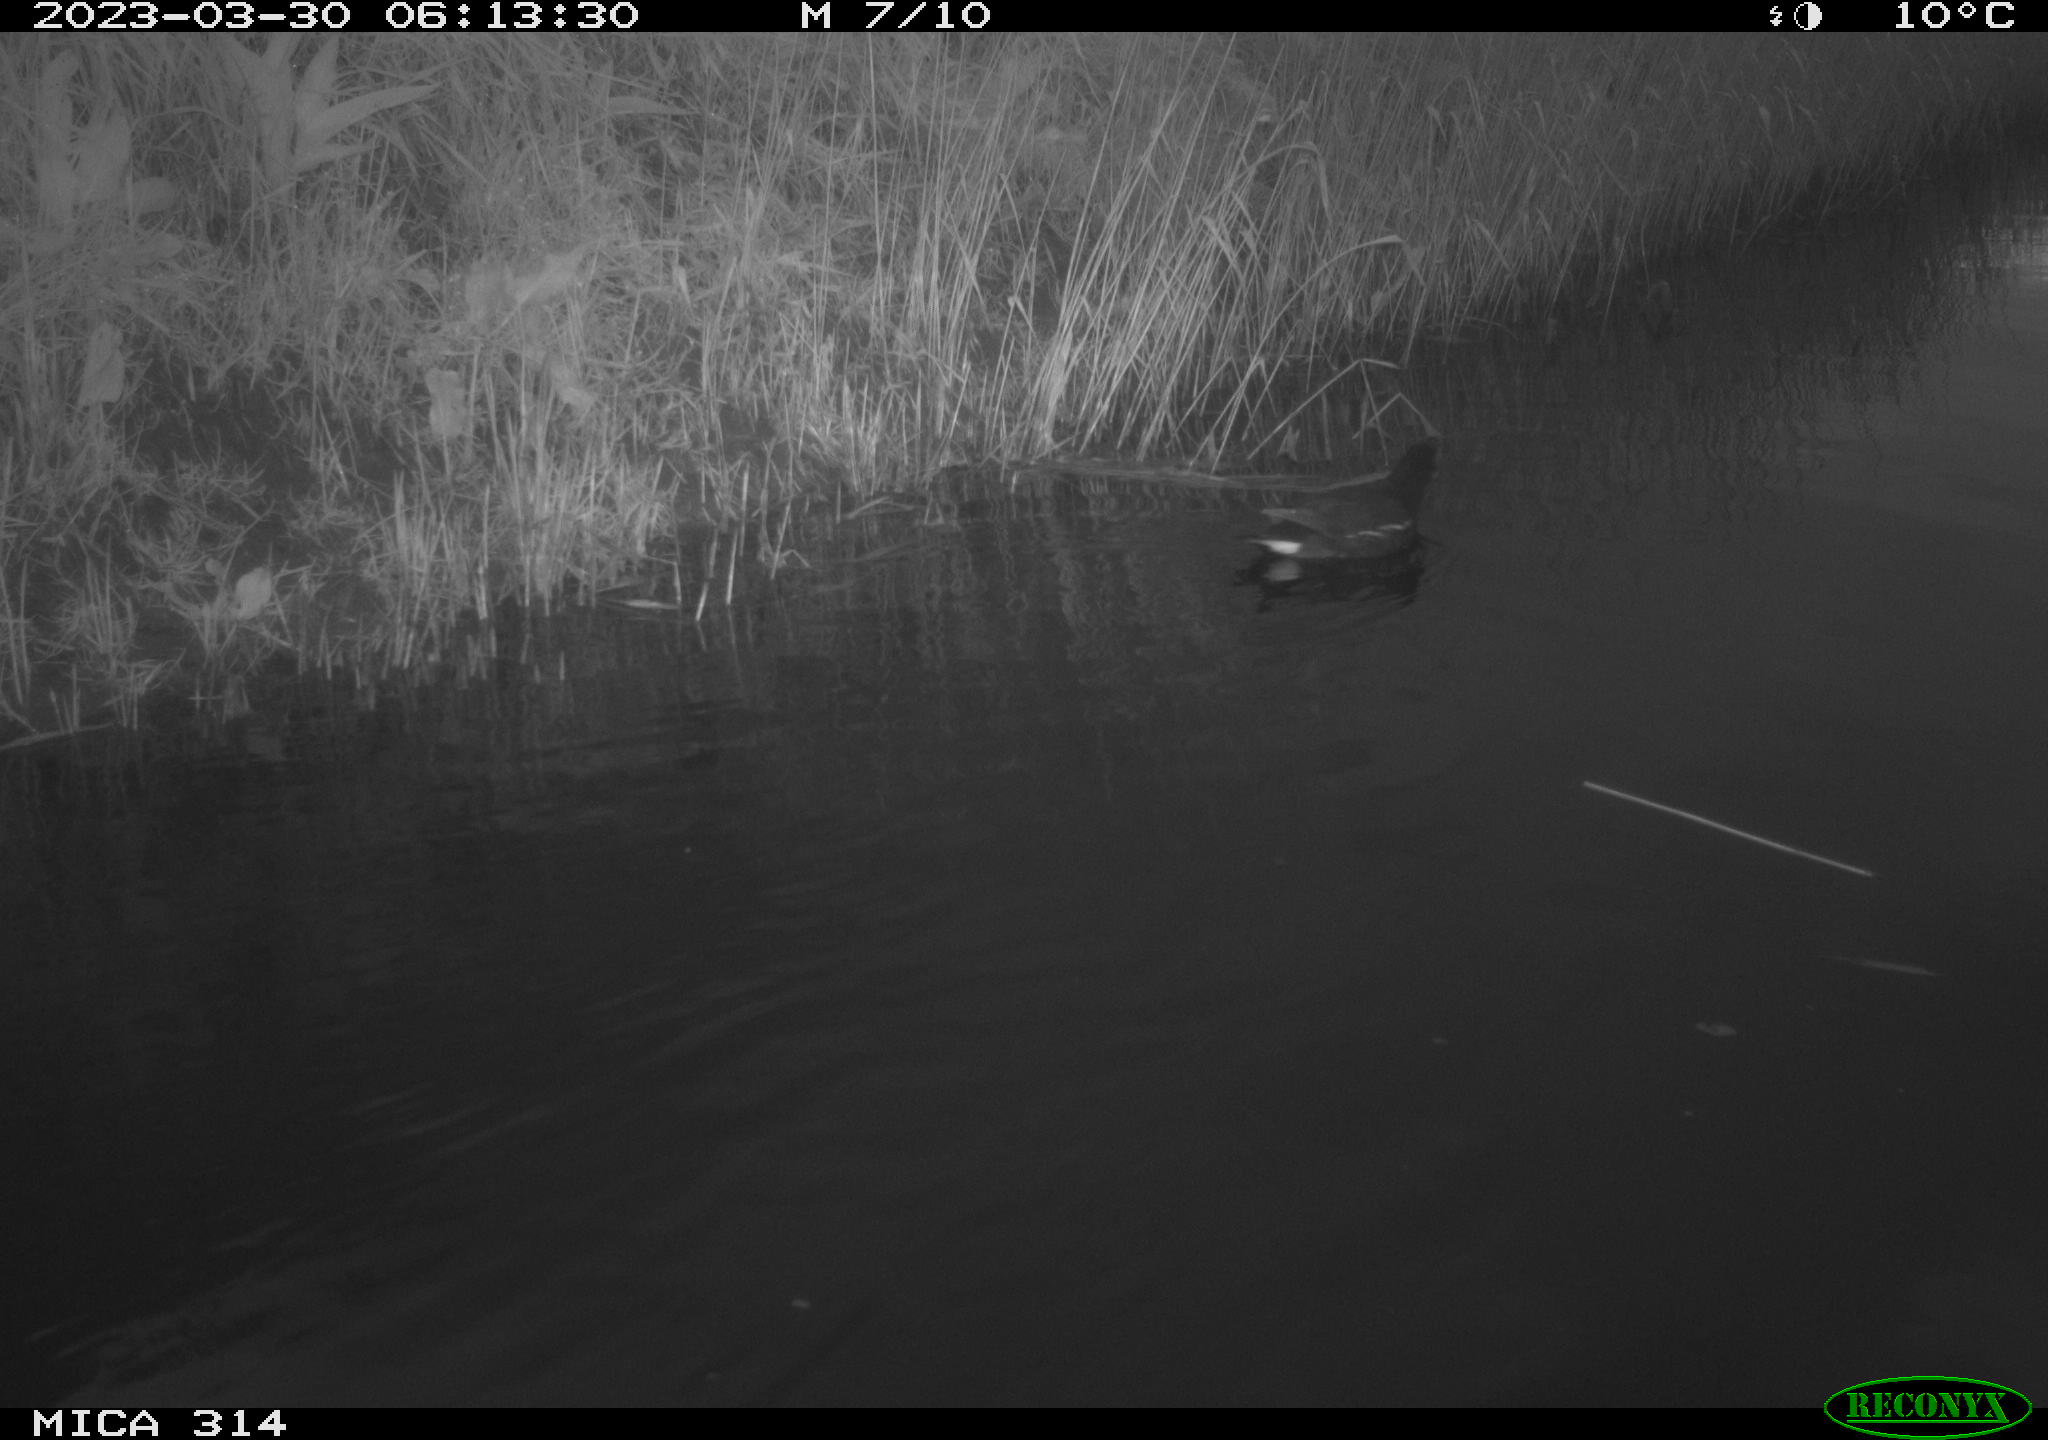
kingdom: Animalia
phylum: Chordata
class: Aves
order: Gruiformes
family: Rallidae
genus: Gallinula
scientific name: Gallinula chloropus
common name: Common moorhen
